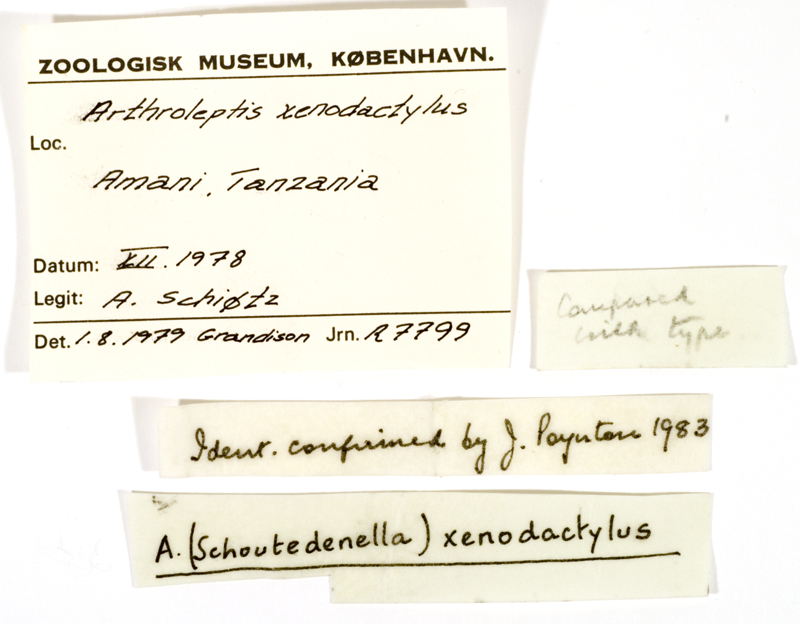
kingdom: Animalia
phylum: Chordata
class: Amphibia
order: Anura
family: Arthroleptidae
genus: Arthroleptis
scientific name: Arthroleptis xenodactylus
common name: Eastern squeaker
